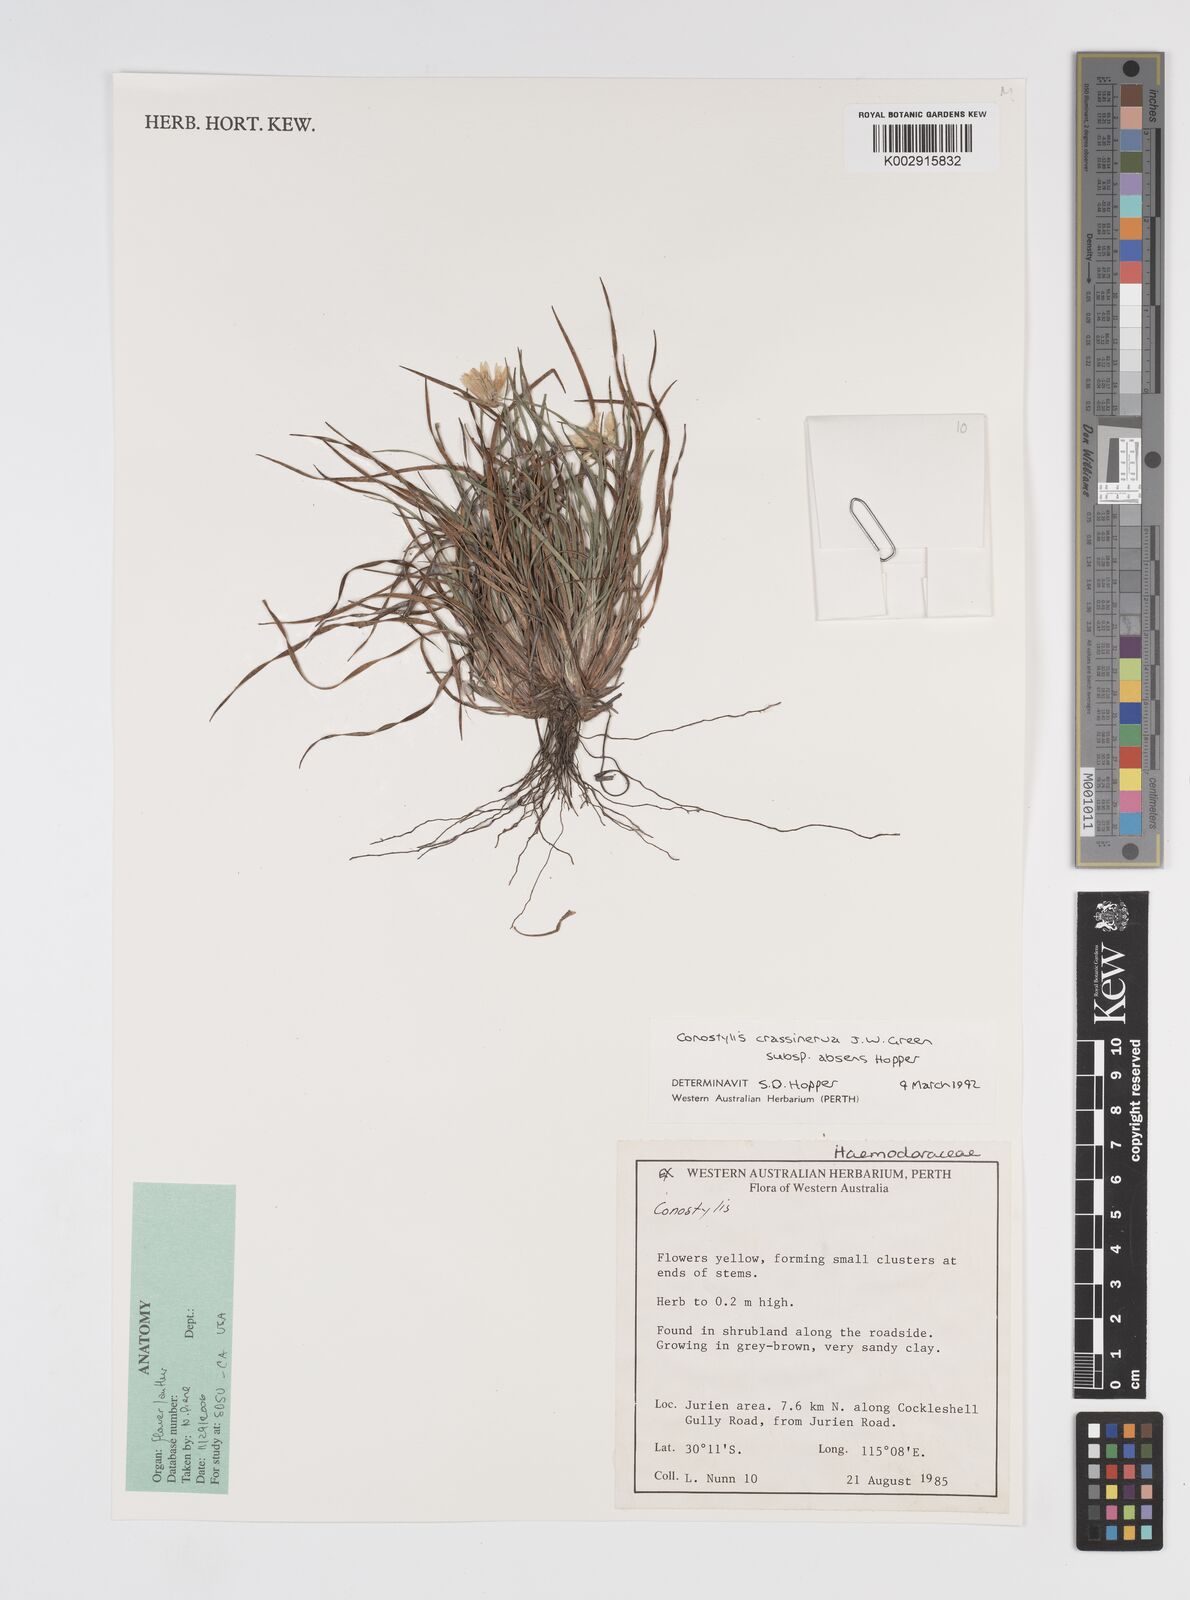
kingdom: Plantae
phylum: Tracheophyta
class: Liliopsida
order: Commelinales
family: Haemodoraceae
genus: Conostylis
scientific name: Conostylis crassinerva
